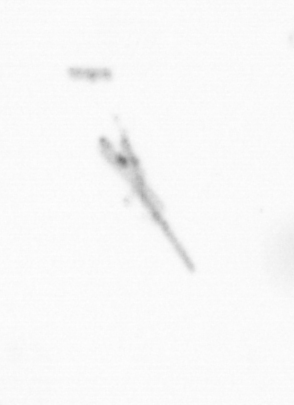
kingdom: Chromista
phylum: Ochrophyta
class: Bacillariophyceae
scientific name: Bacillariophyceae
